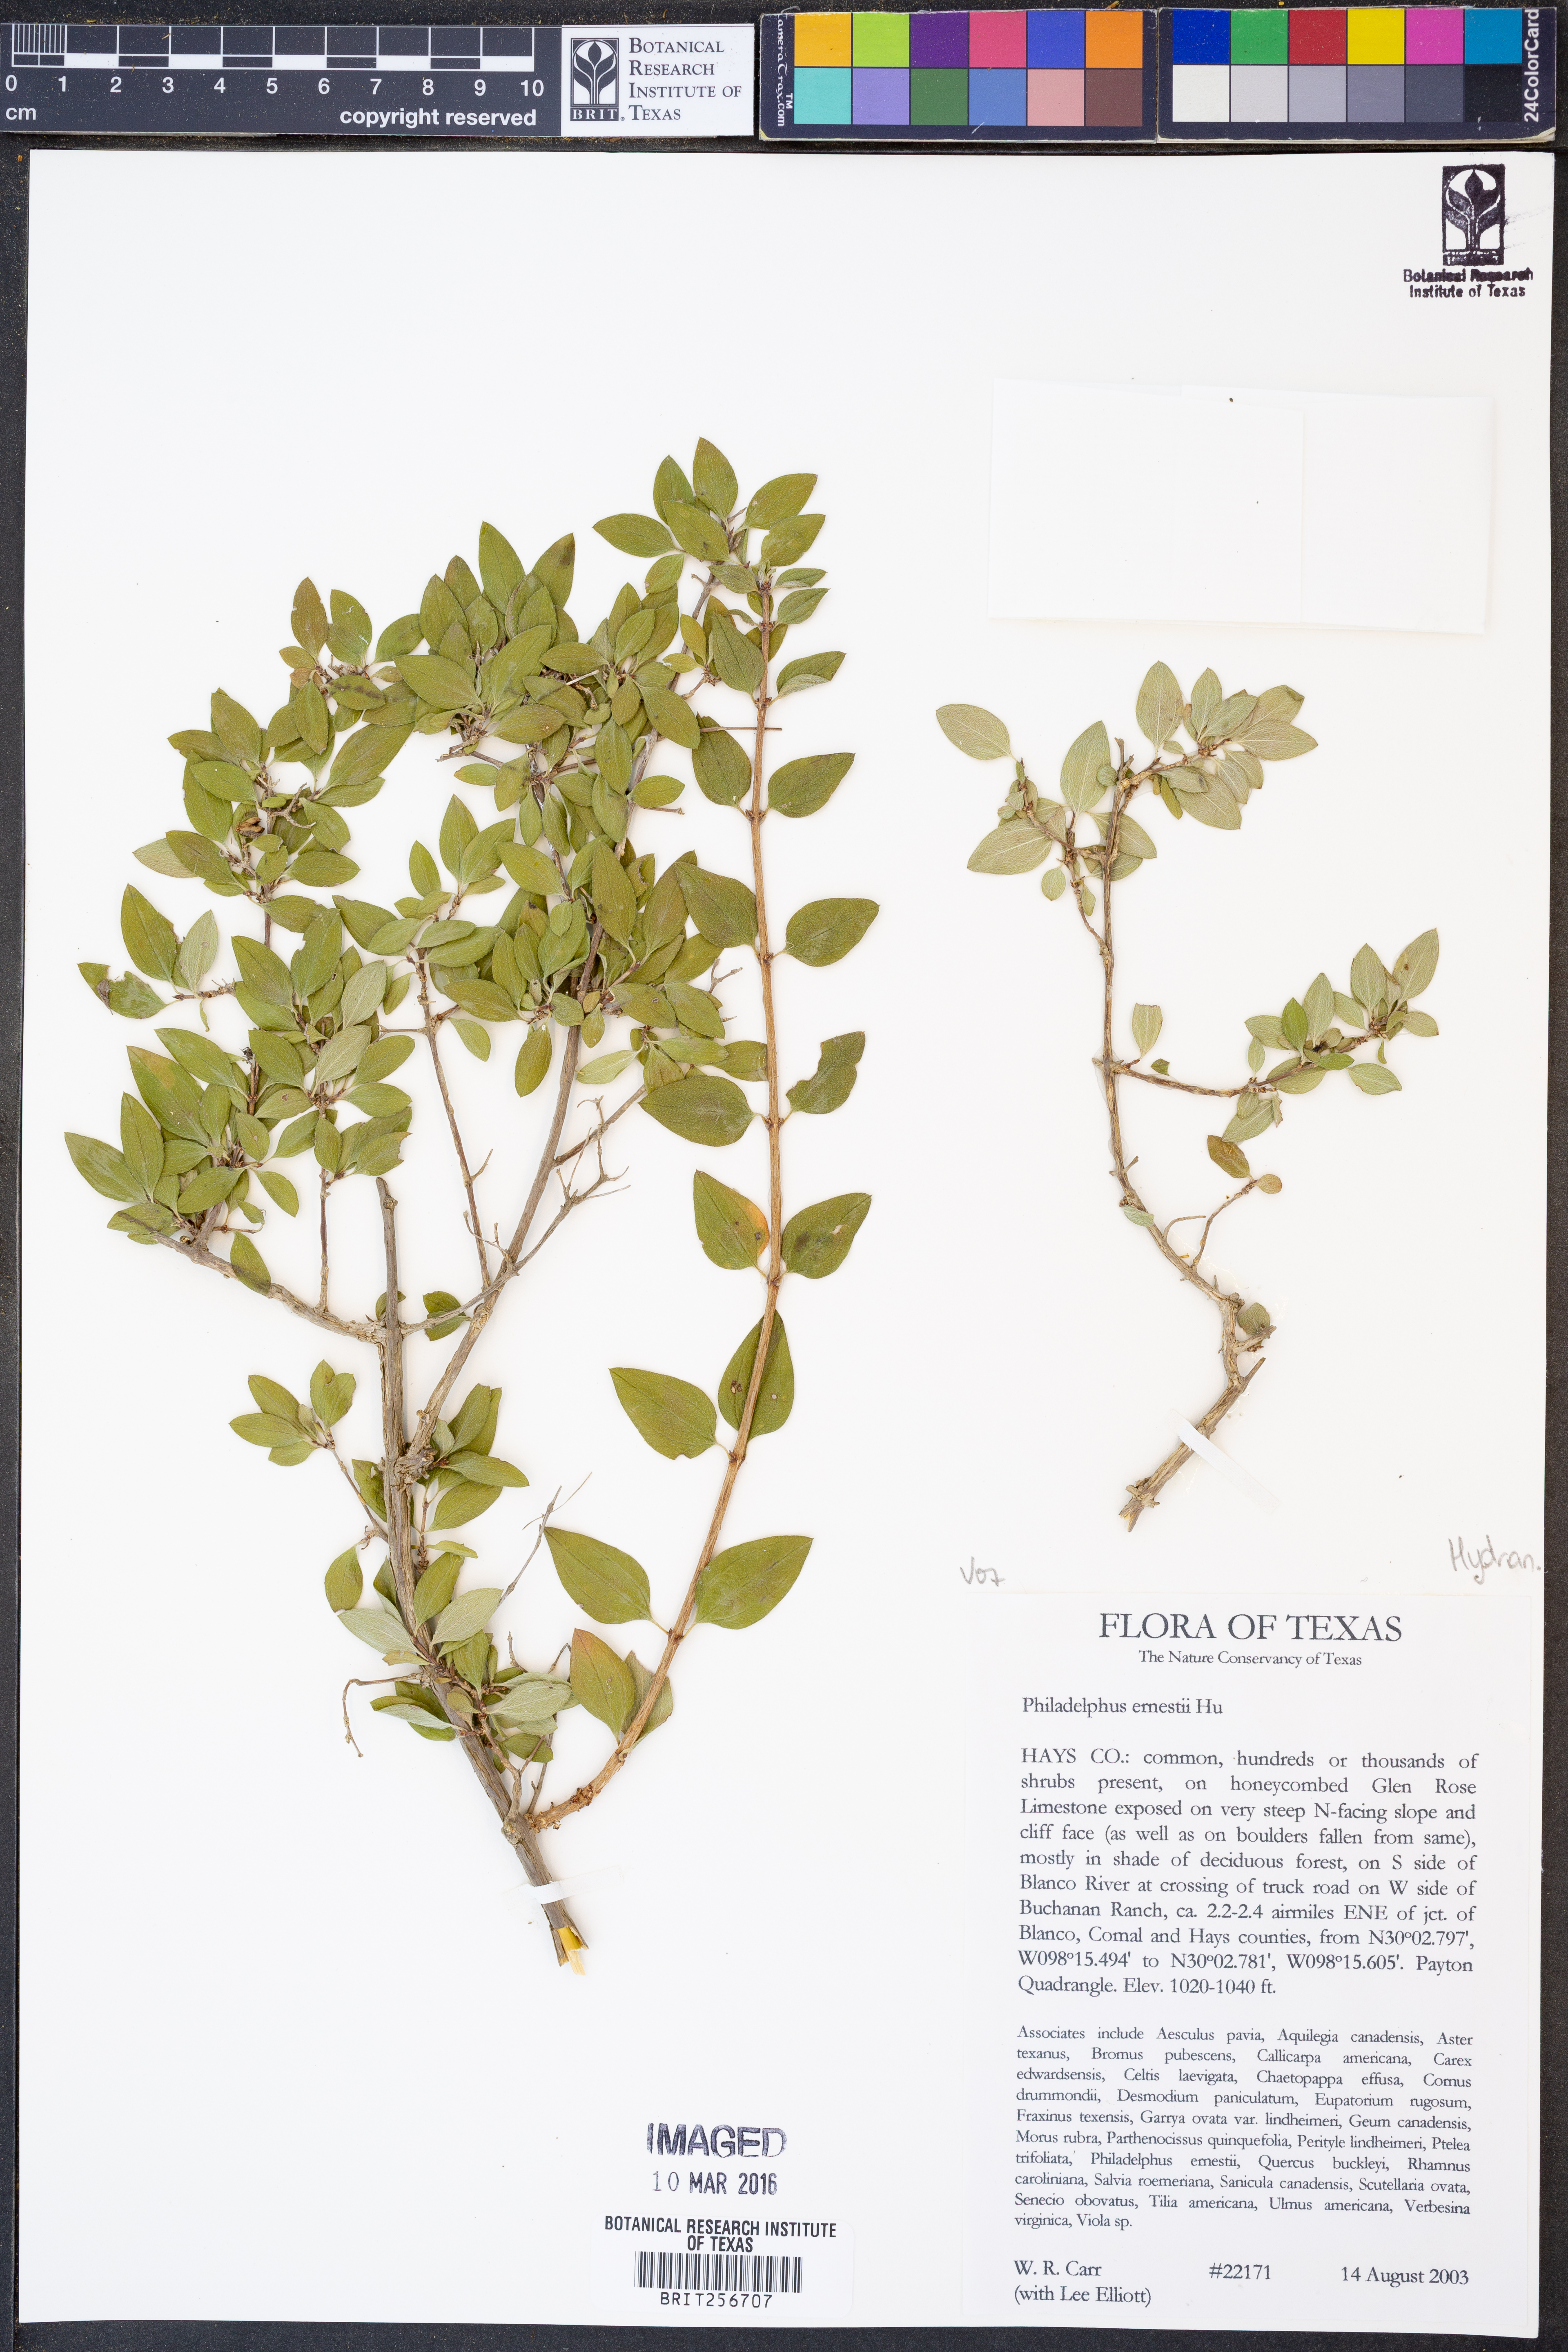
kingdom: Plantae
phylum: Tracheophyta
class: Magnoliopsida
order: Cornales
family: Hydrangeaceae
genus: Philadelphus
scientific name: Philadelphus texensis
